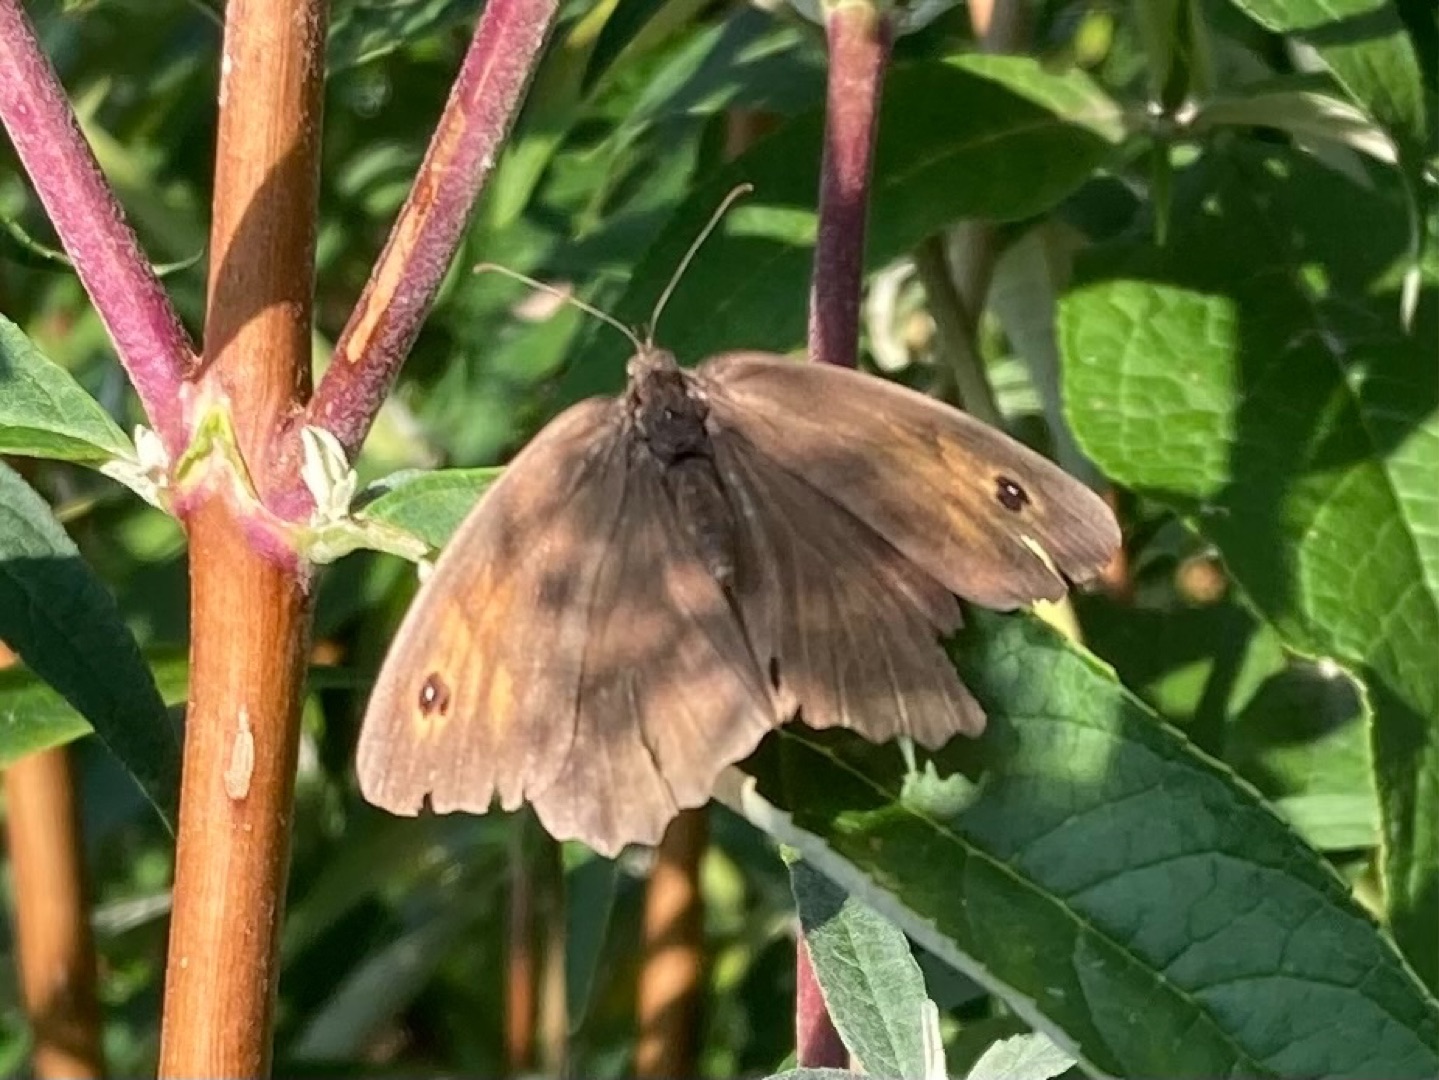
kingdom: Animalia
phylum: Arthropoda
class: Insecta
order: Lepidoptera
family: Nymphalidae
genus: Maniola
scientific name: Maniola jurtina
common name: Græsrandøje
